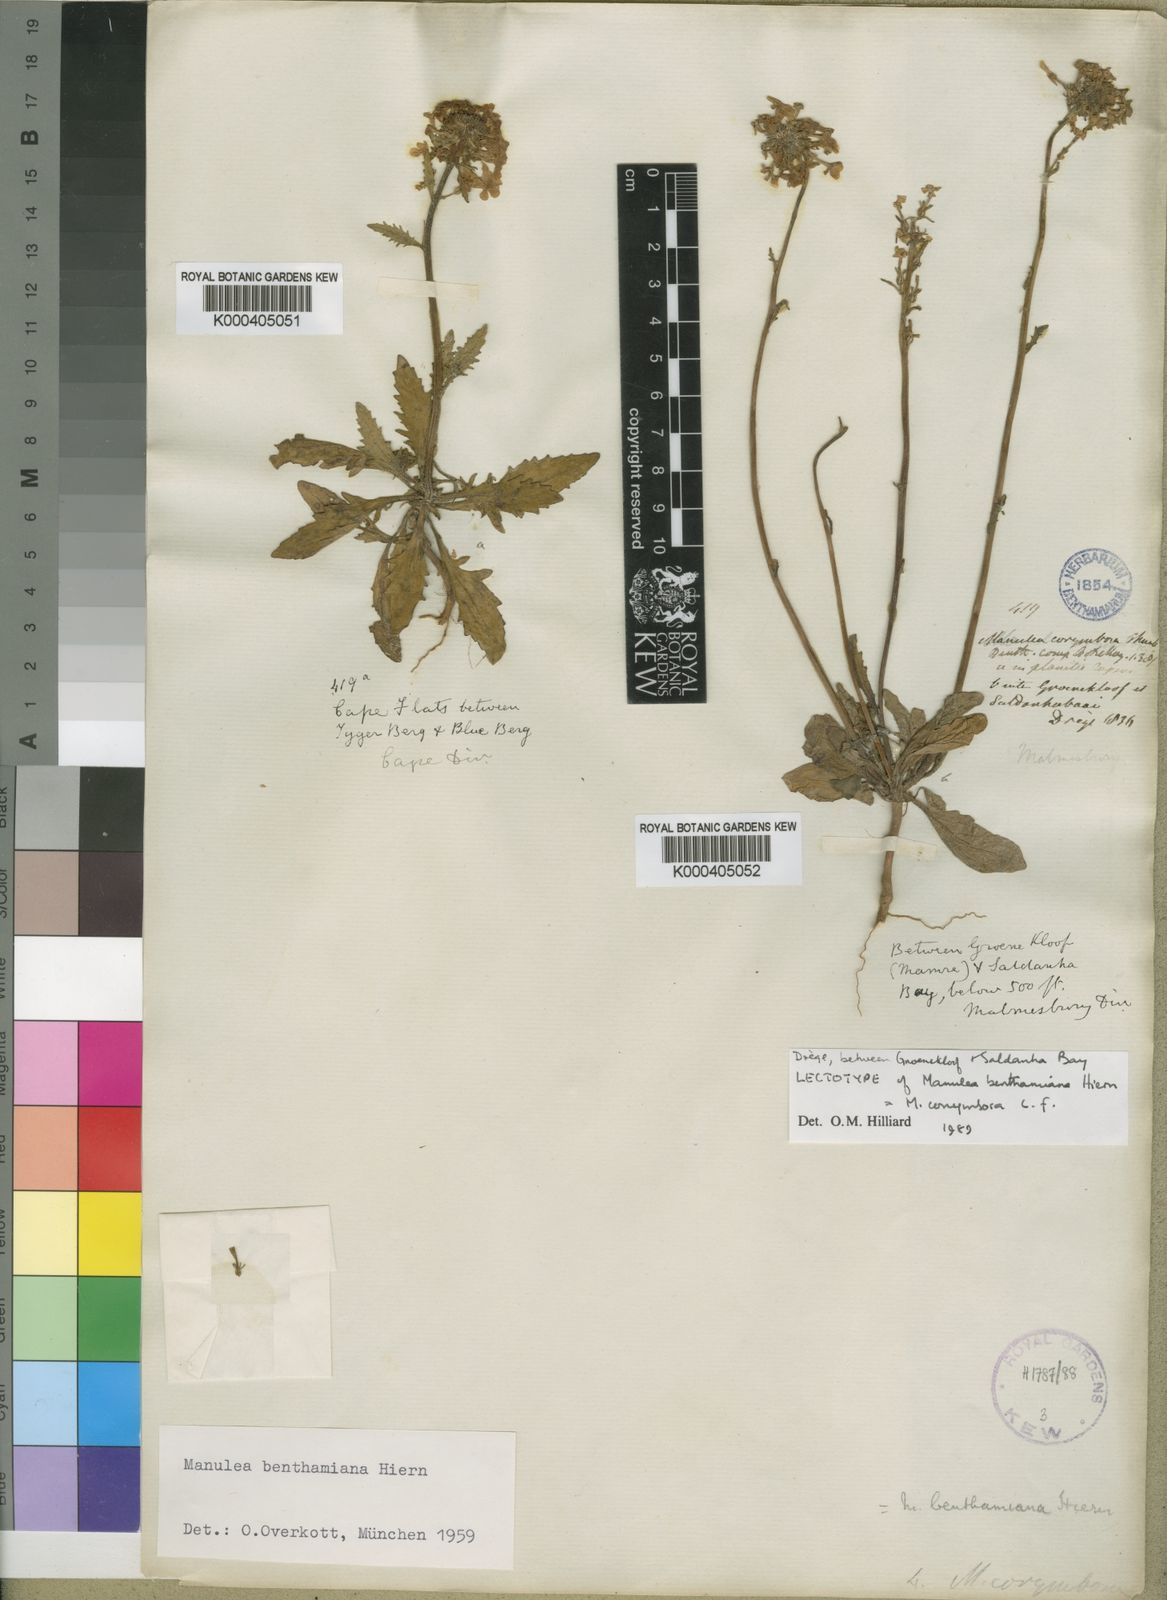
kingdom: Plantae
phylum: Tracheophyta
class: Magnoliopsida
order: Lamiales
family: Scrophulariaceae
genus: Manulea
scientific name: Manulea corymbosa
